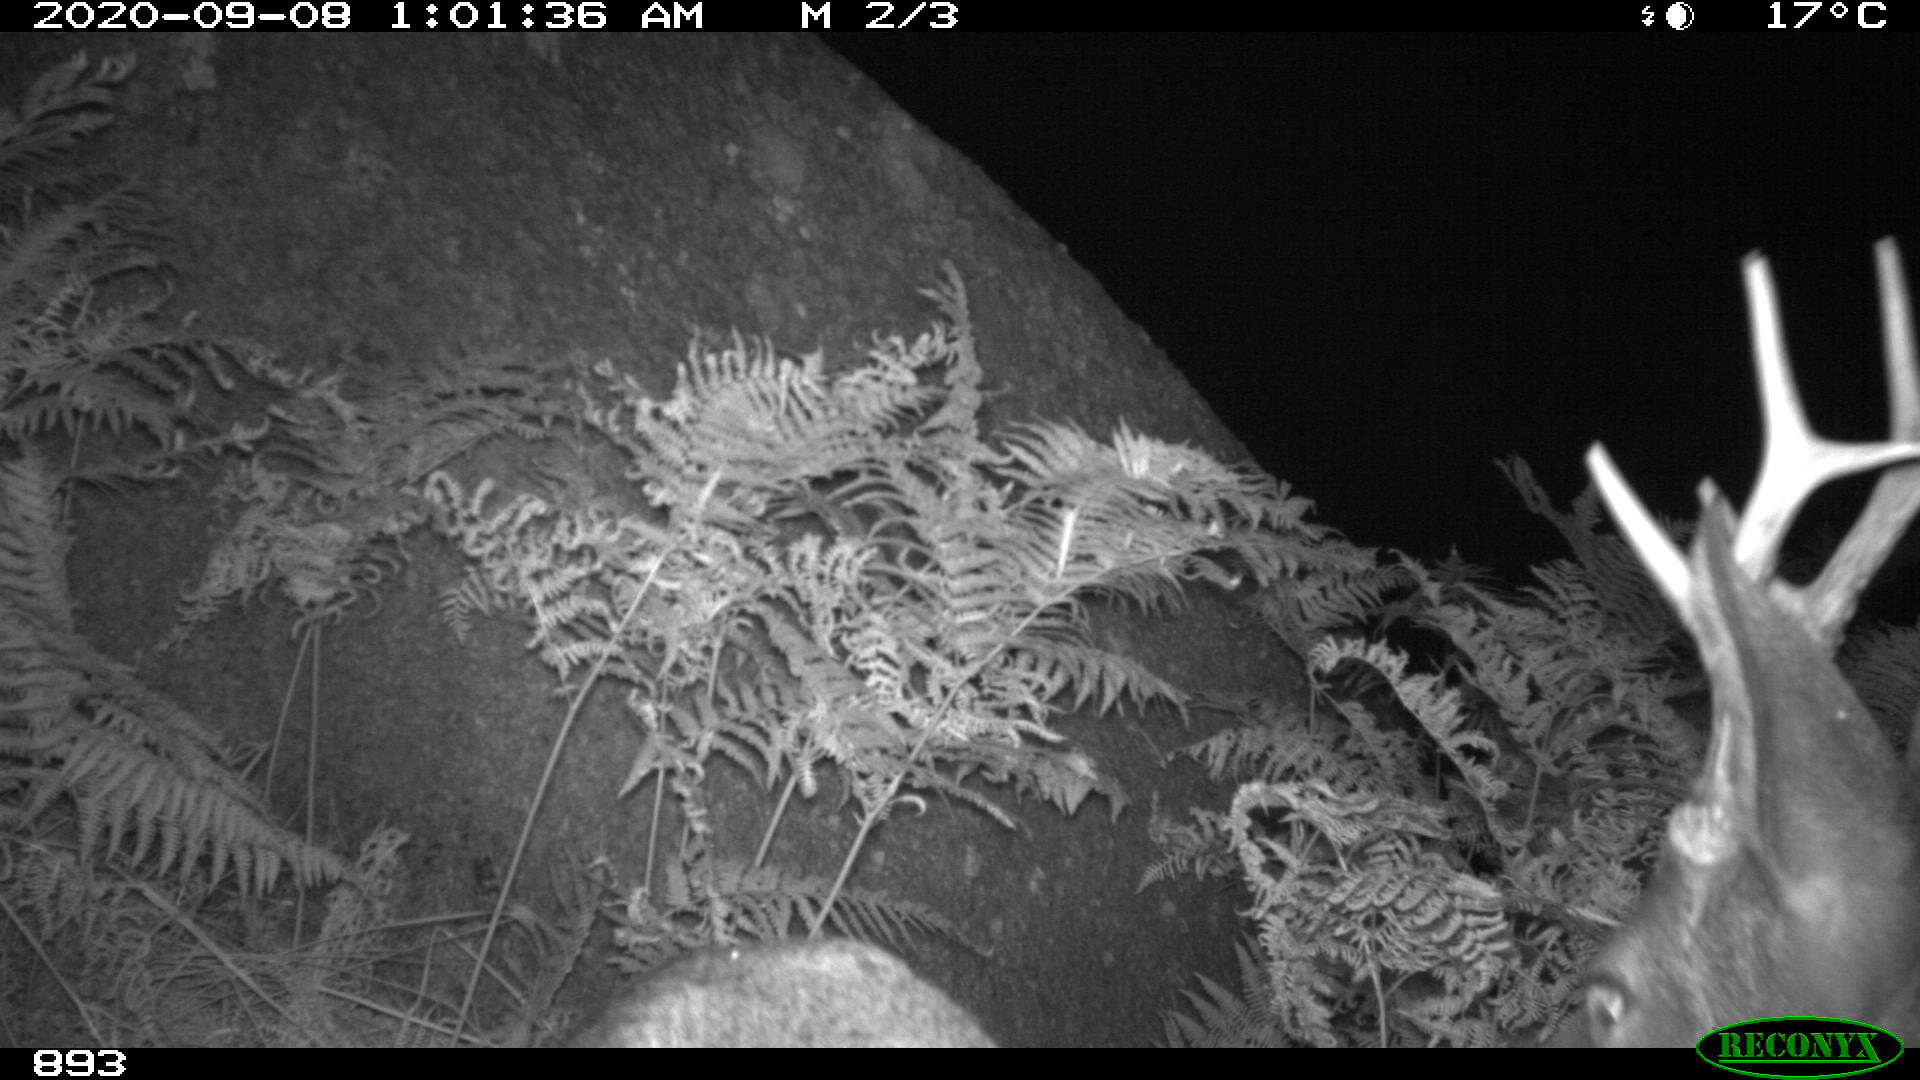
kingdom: Animalia
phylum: Chordata
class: Mammalia
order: Artiodactyla
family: Cervidae
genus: Capreolus
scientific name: Capreolus capreolus
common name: Western roe deer
